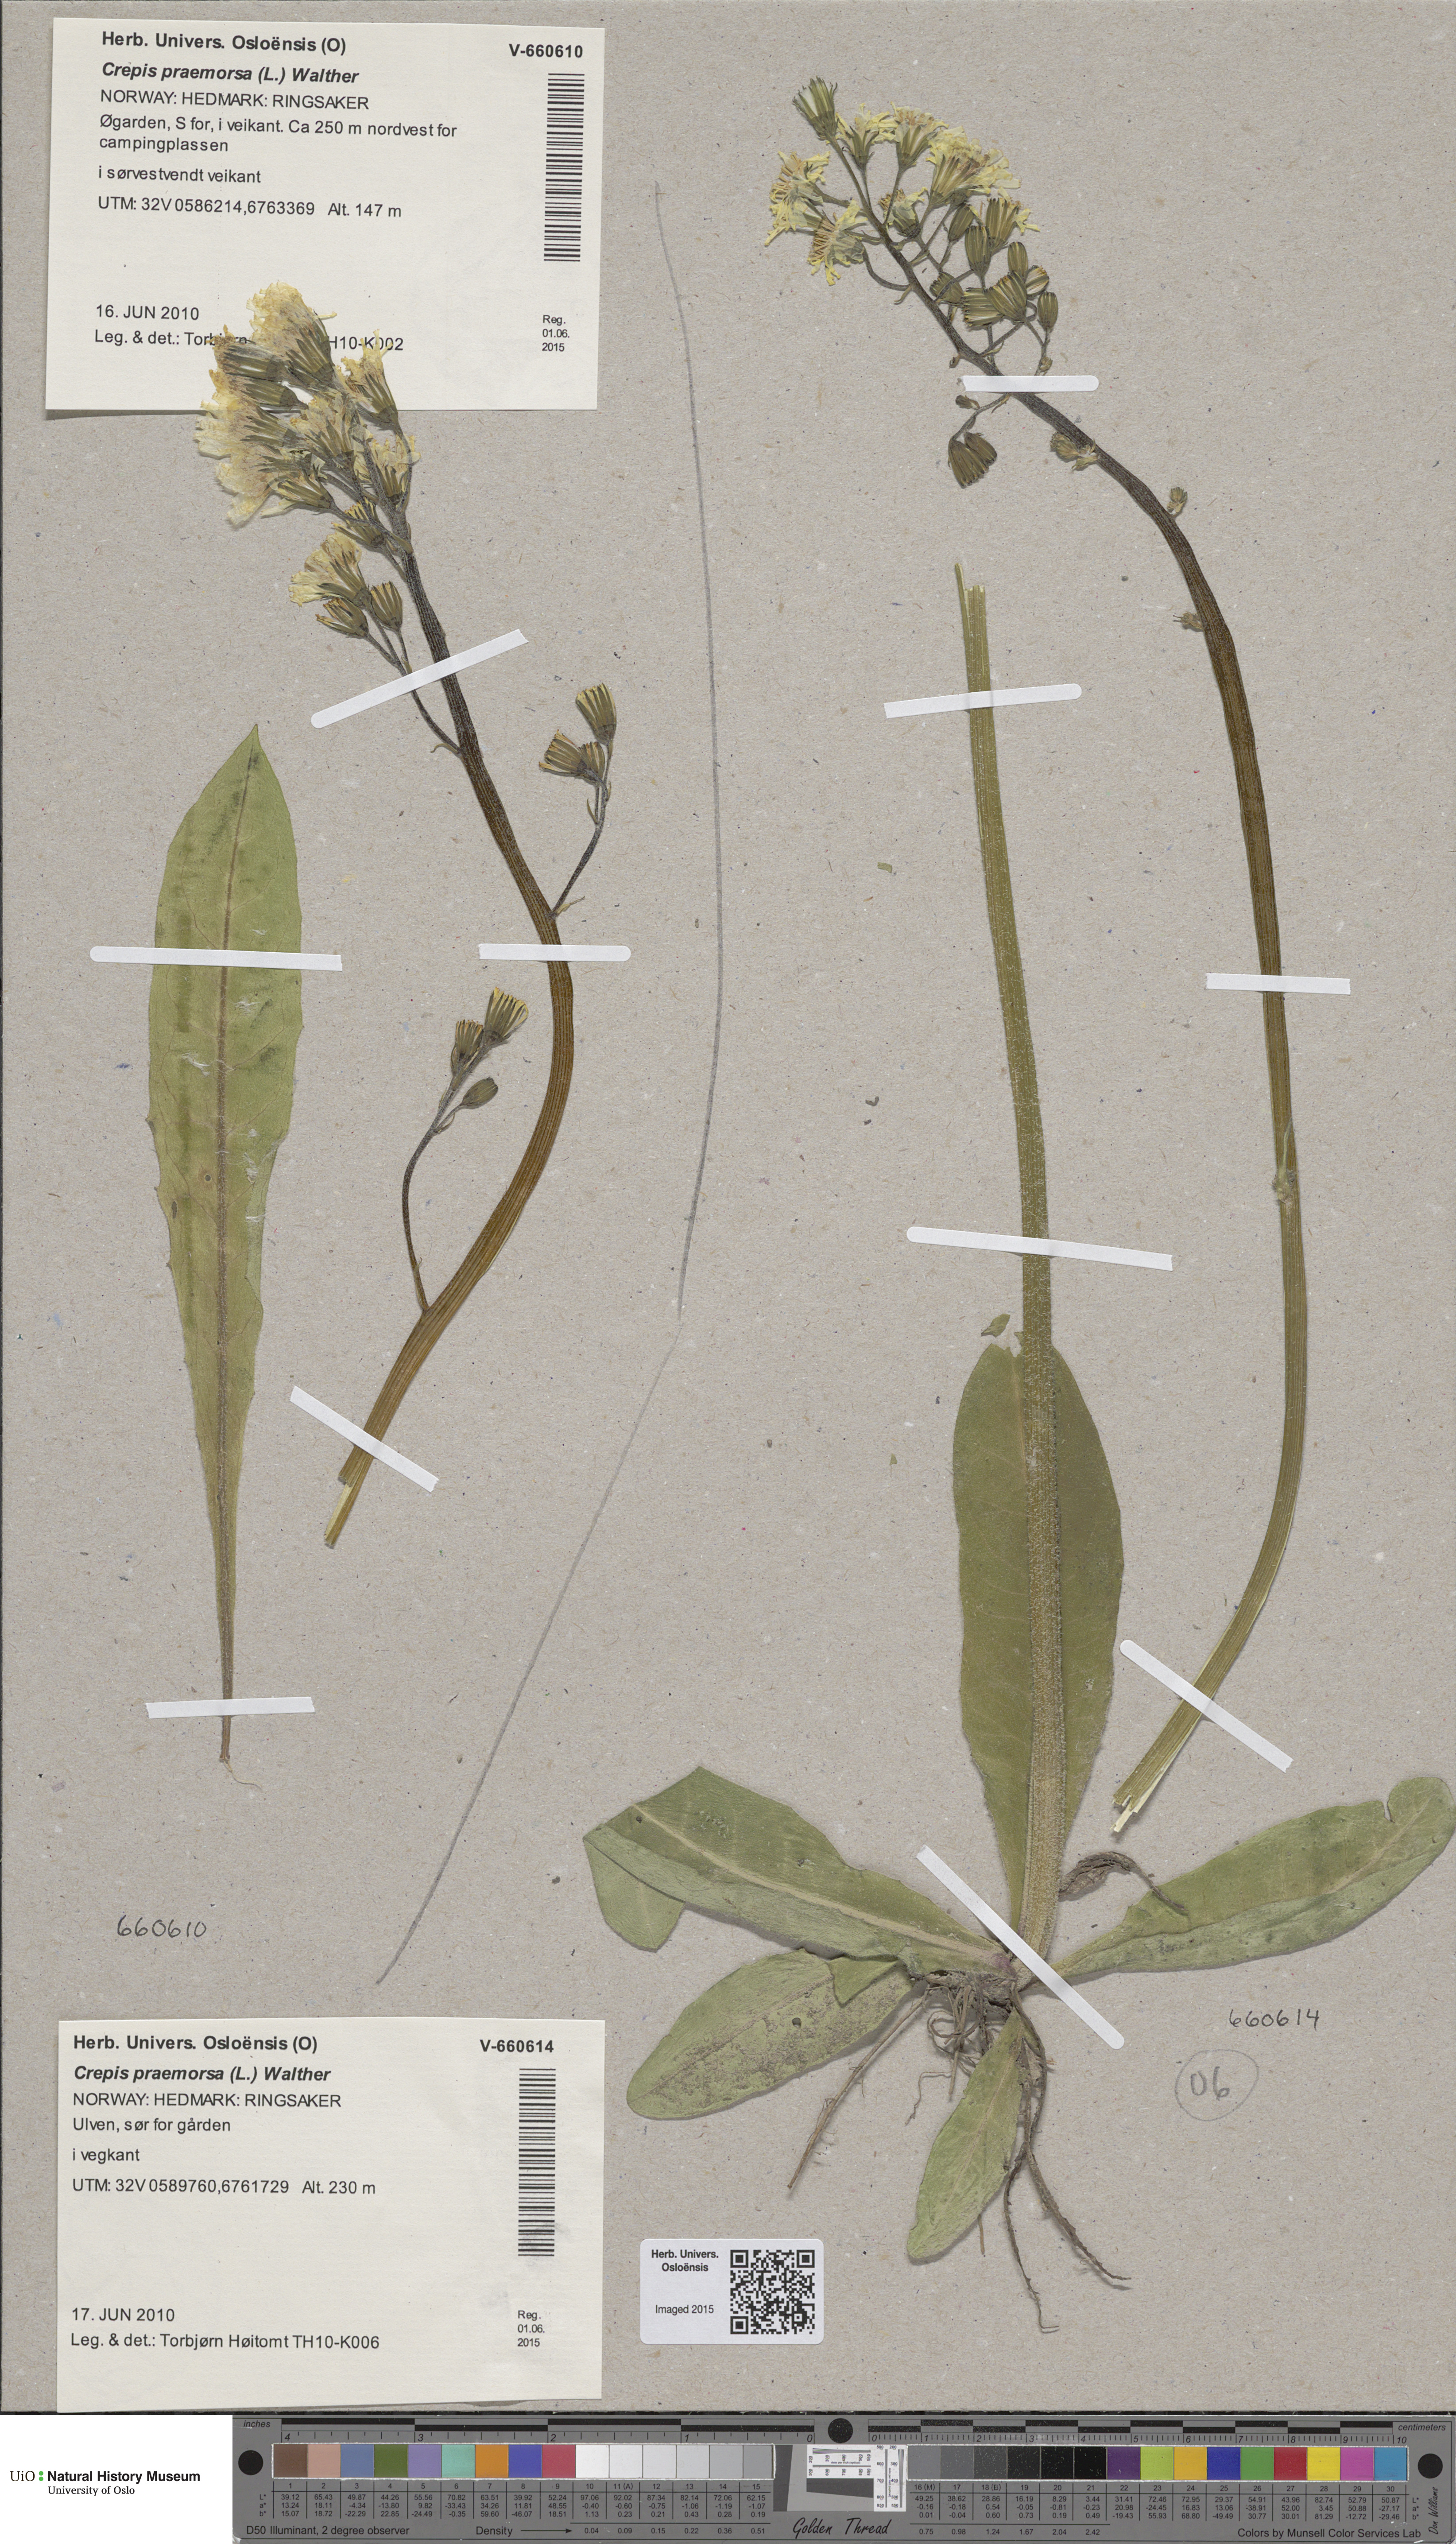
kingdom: Plantae
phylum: Tracheophyta
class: Magnoliopsida
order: Asterales
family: Asteraceae
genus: Crepis
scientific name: Crepis praemorsa
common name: Leafless hawk's-beard
